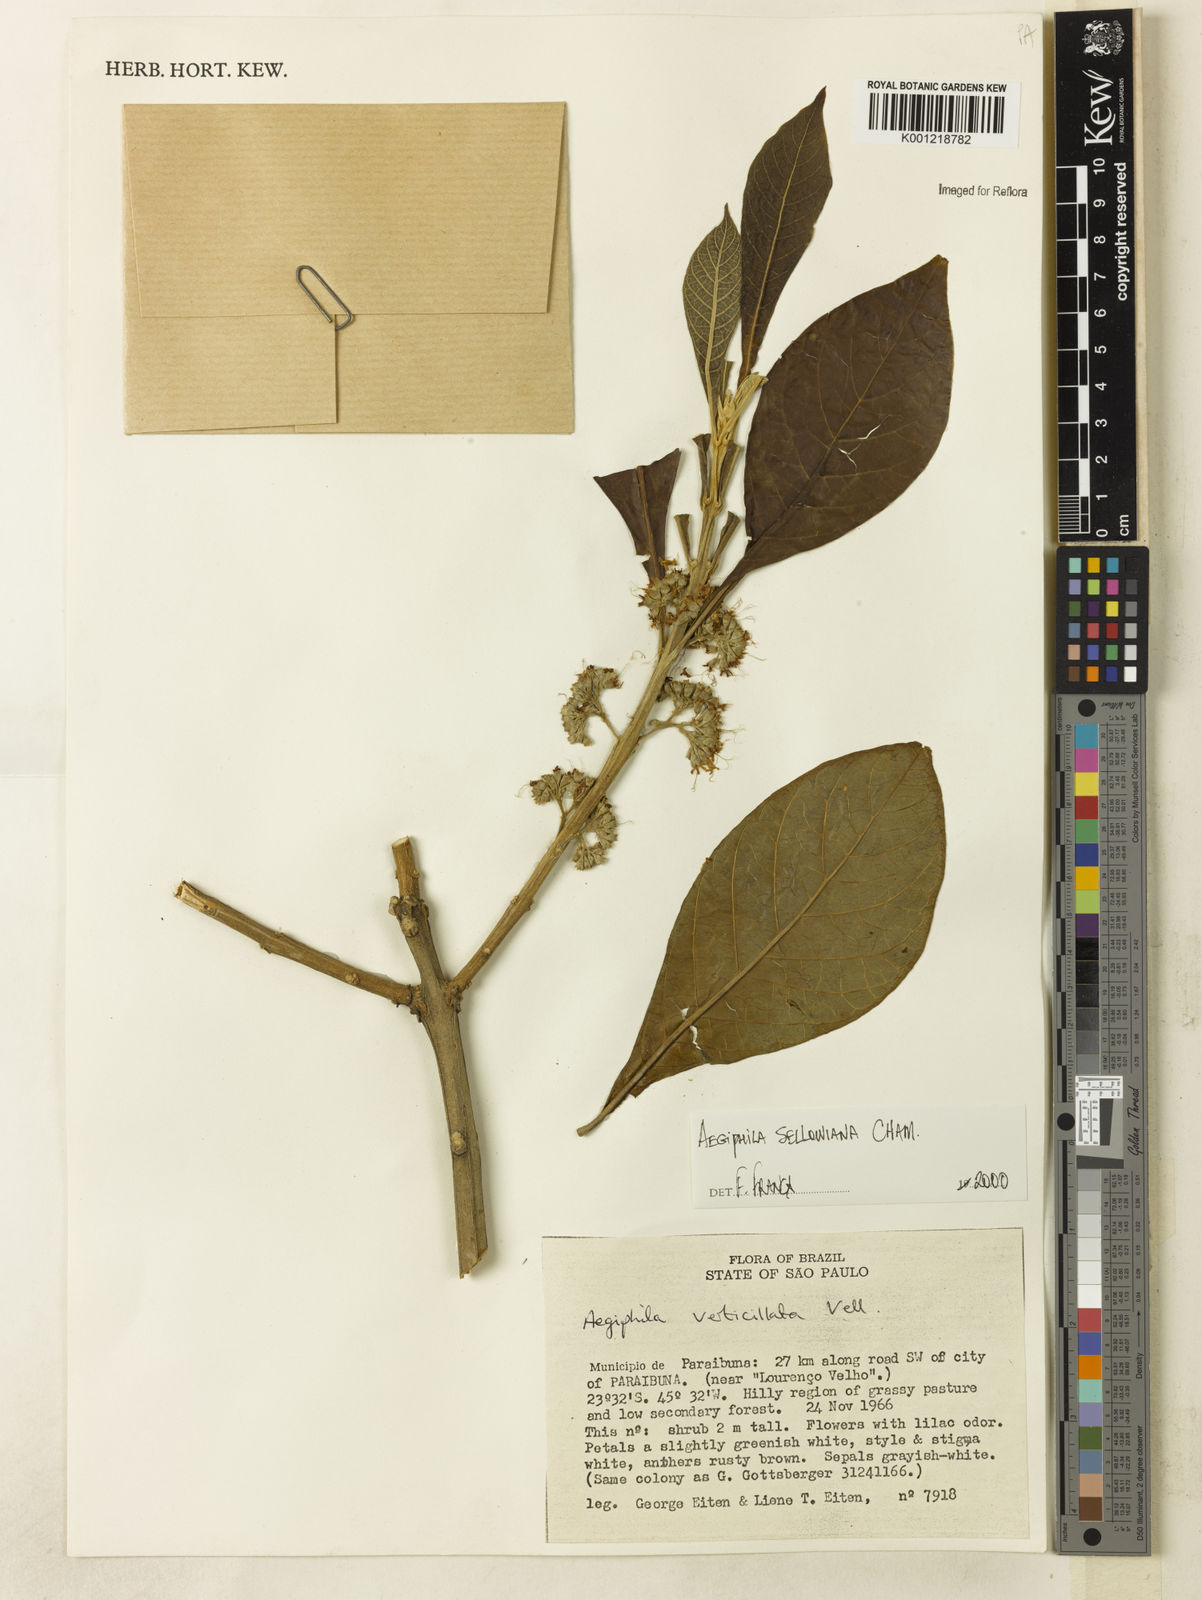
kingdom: Plantae
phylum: Tracheophyta
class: Magnoliopsida
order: Lamiales
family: Lamiaceae
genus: Aegiphila
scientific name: Aegiphila verticillata
